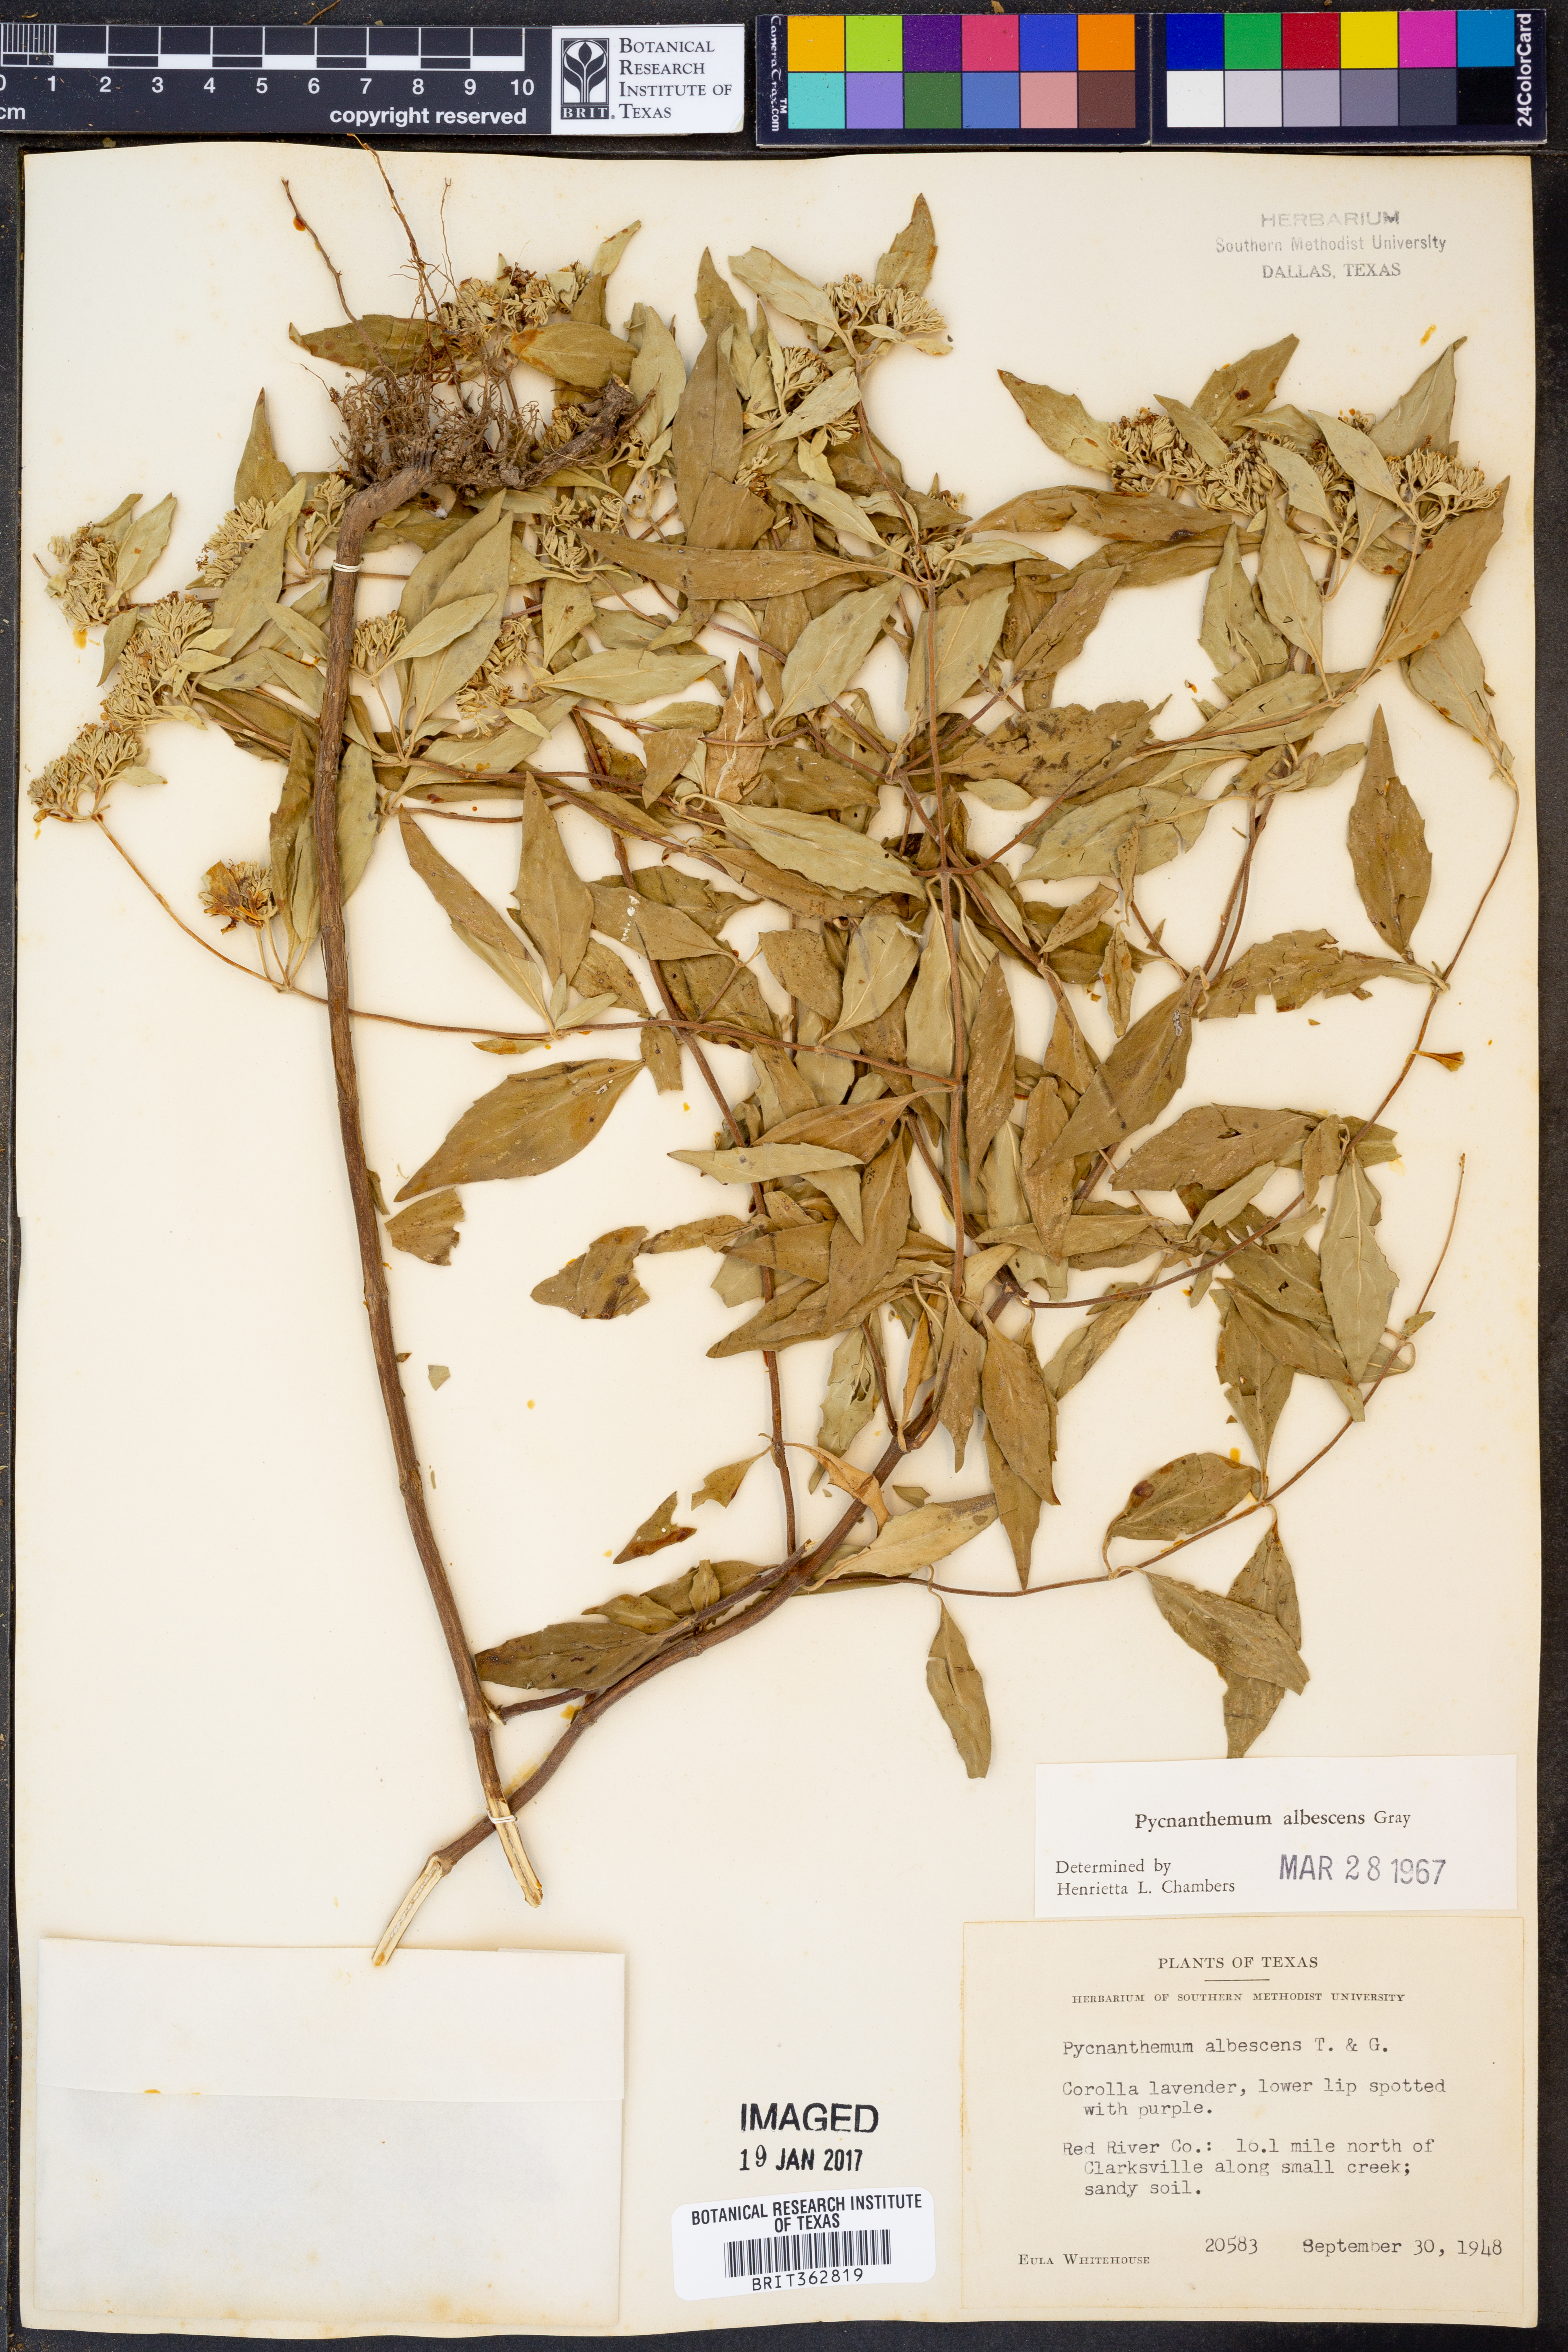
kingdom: Plantae
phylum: Tracheophyta
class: Magnoliopsida
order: Lamiales
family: Lamiaceae
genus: Pycnanthemum
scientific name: Pycnanthemum albescens
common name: White-leaf mountain-mint
